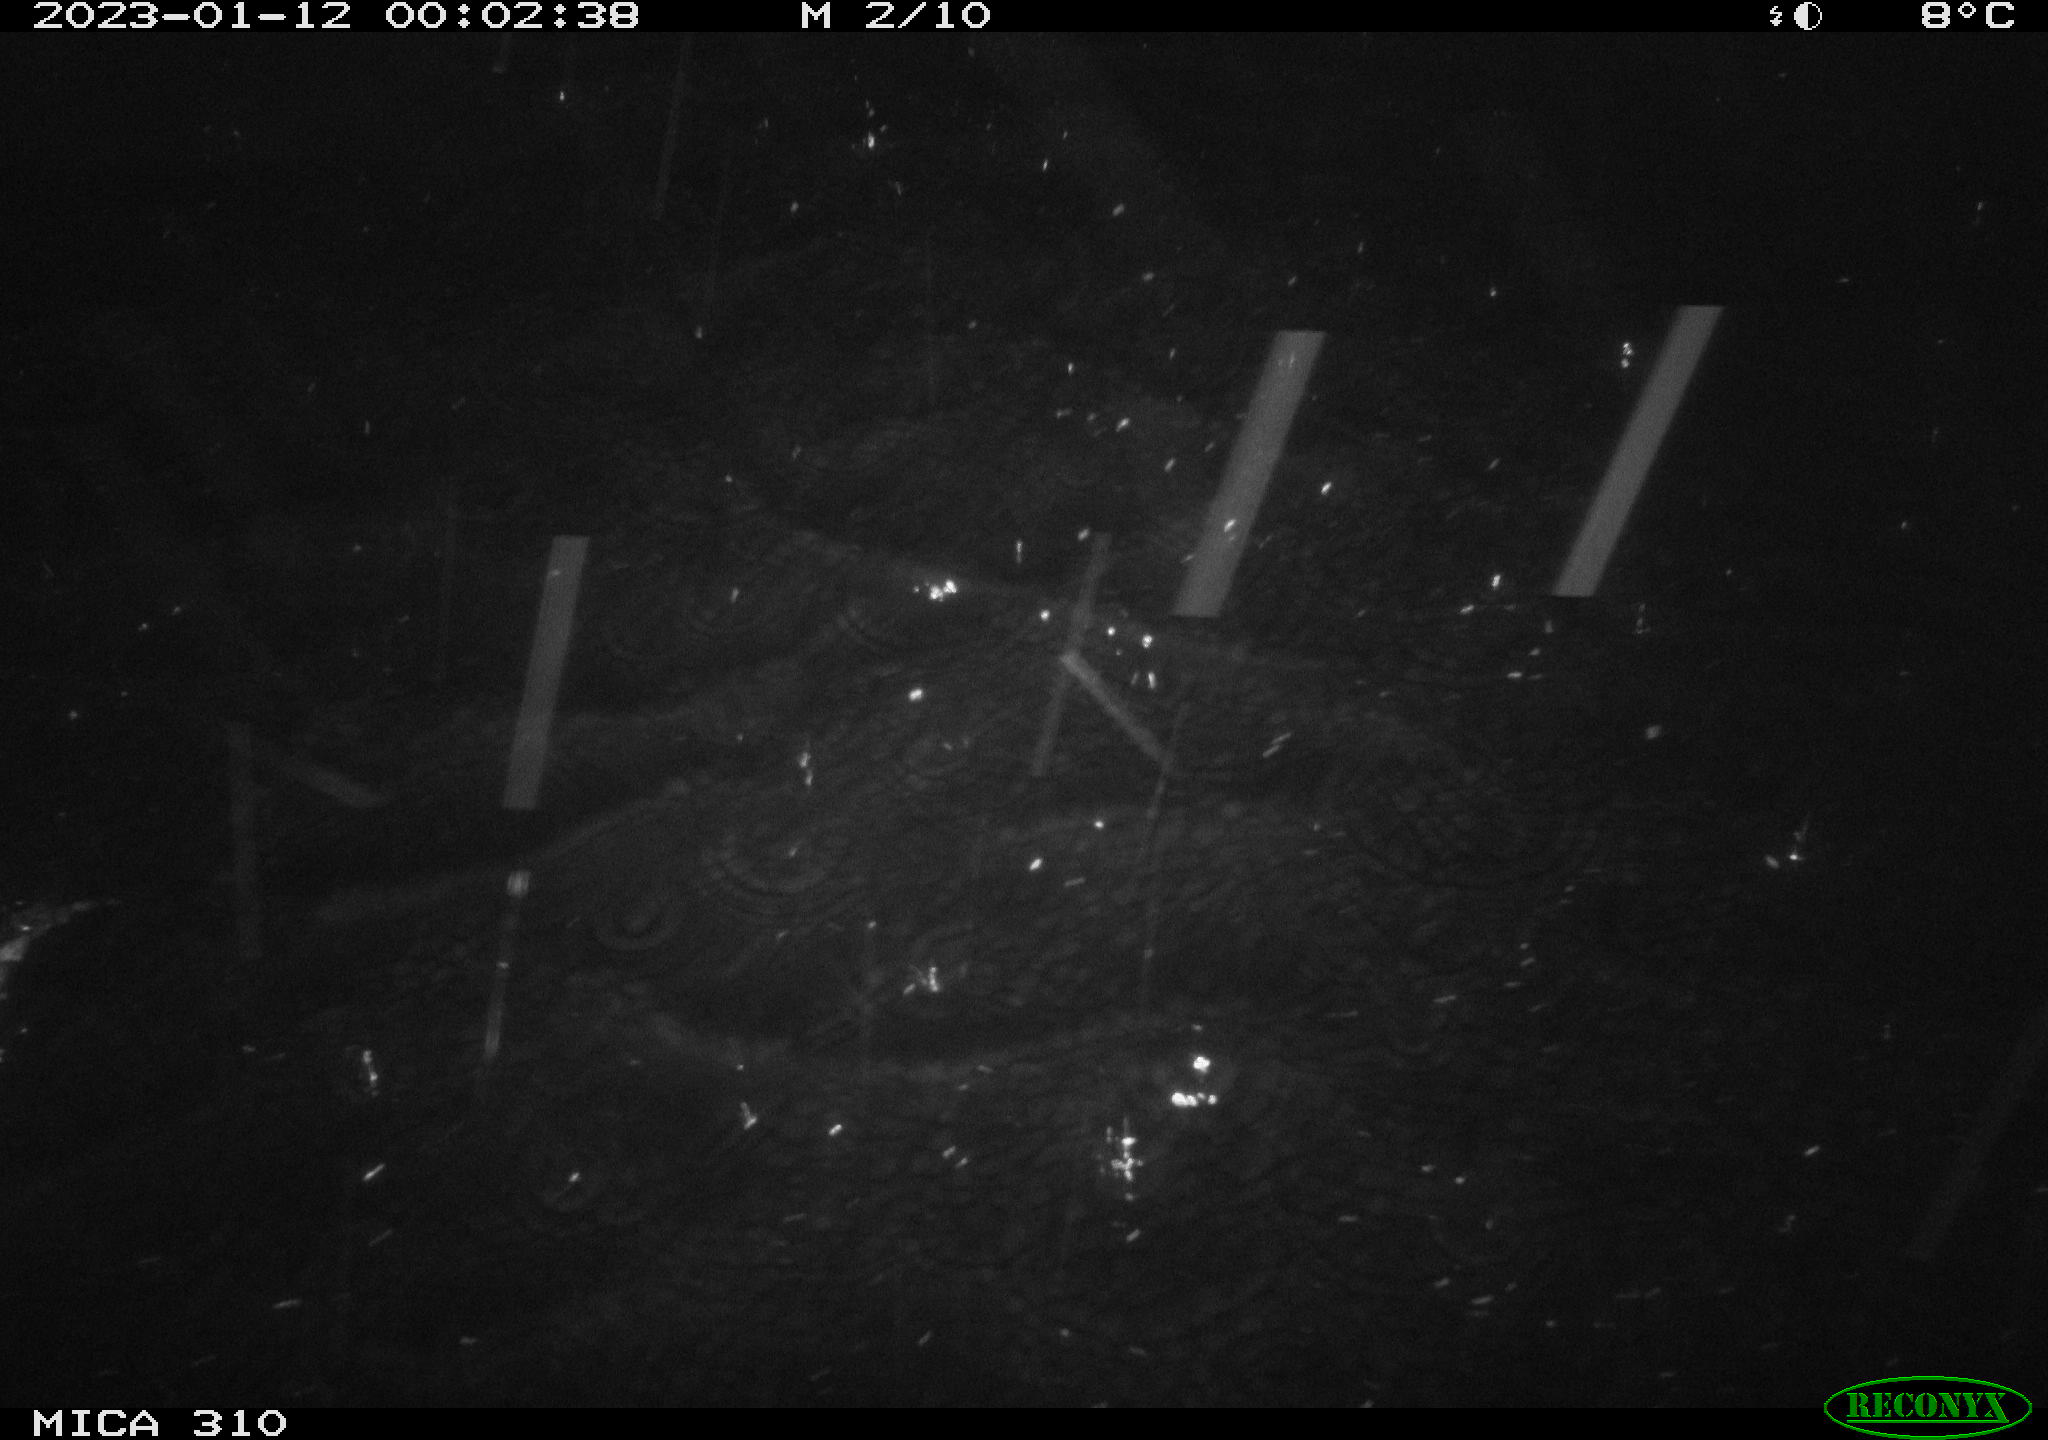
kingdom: Animalia
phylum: Chordata
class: Mammalia
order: Rodentia
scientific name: Rodentia
